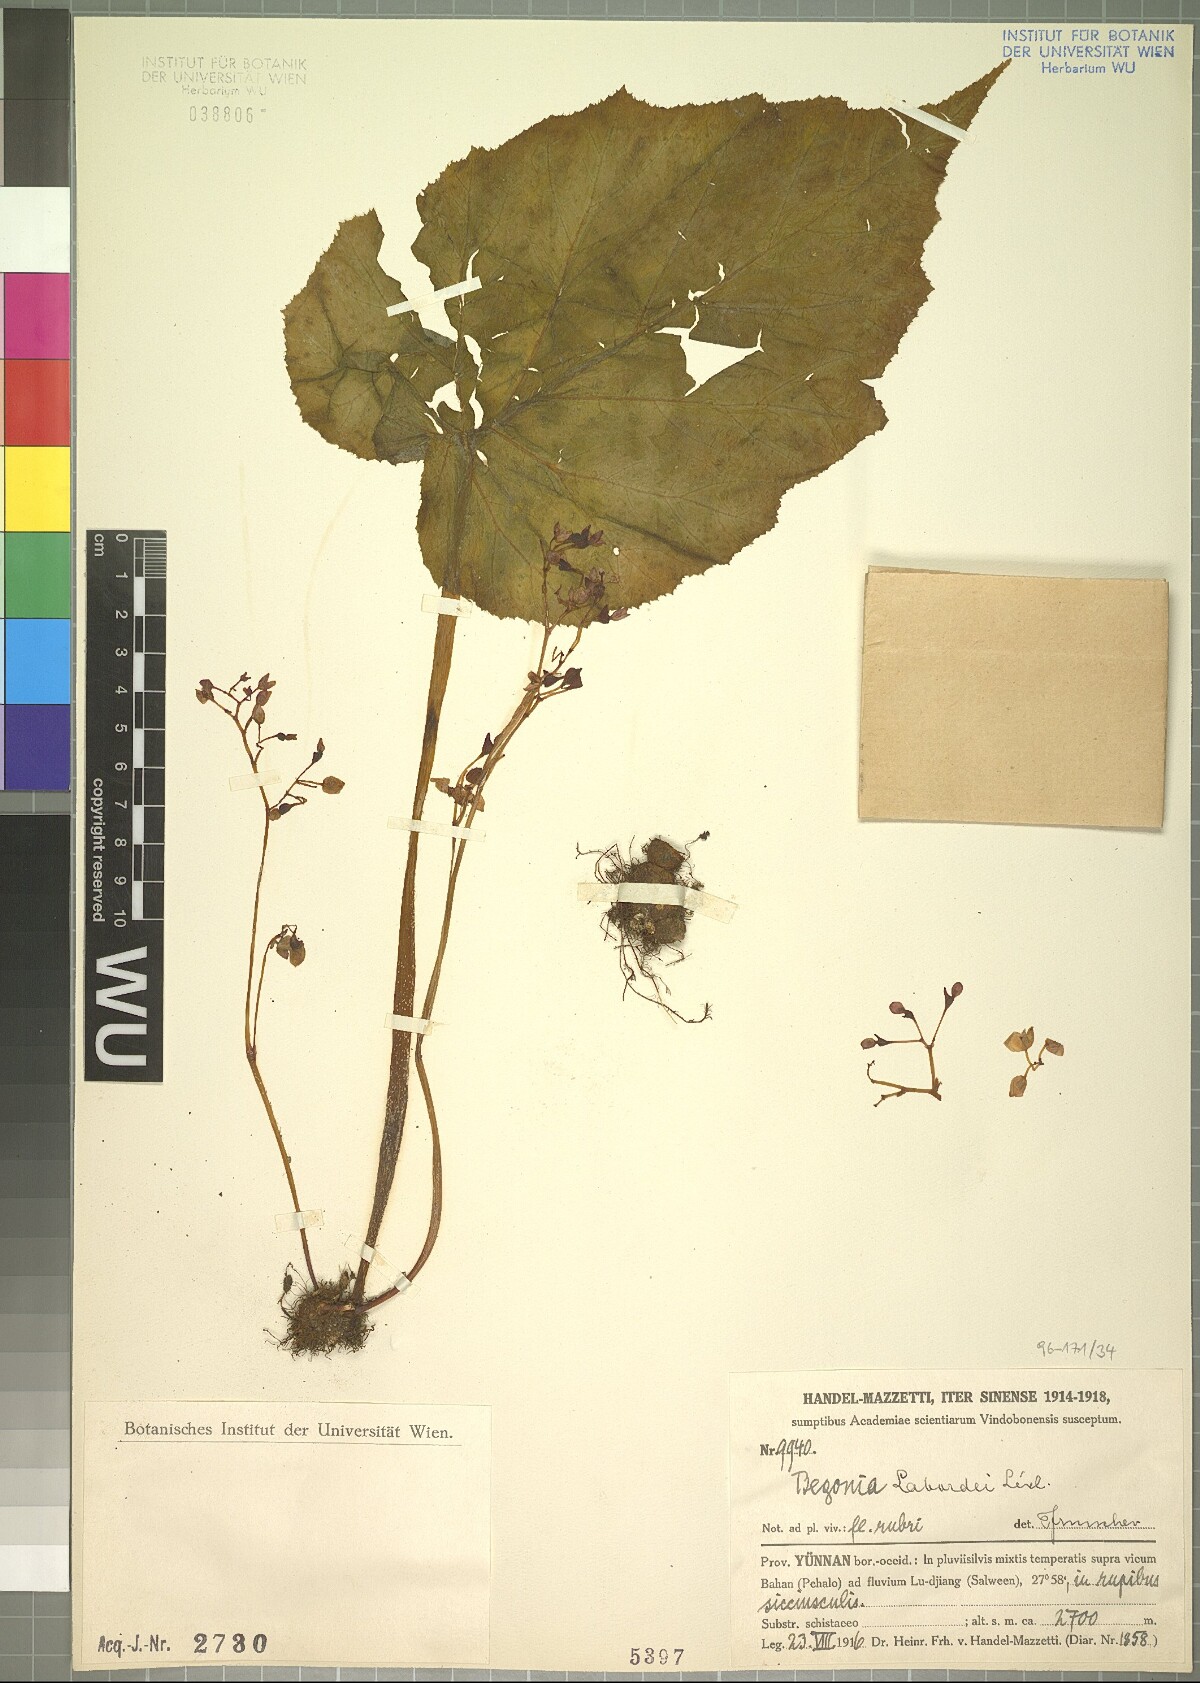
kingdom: Plantae
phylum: Tracheophyta
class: Magnoliopsida
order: Cucurbitales
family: Begoniaceae
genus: Begonia
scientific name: Begonia labordei
